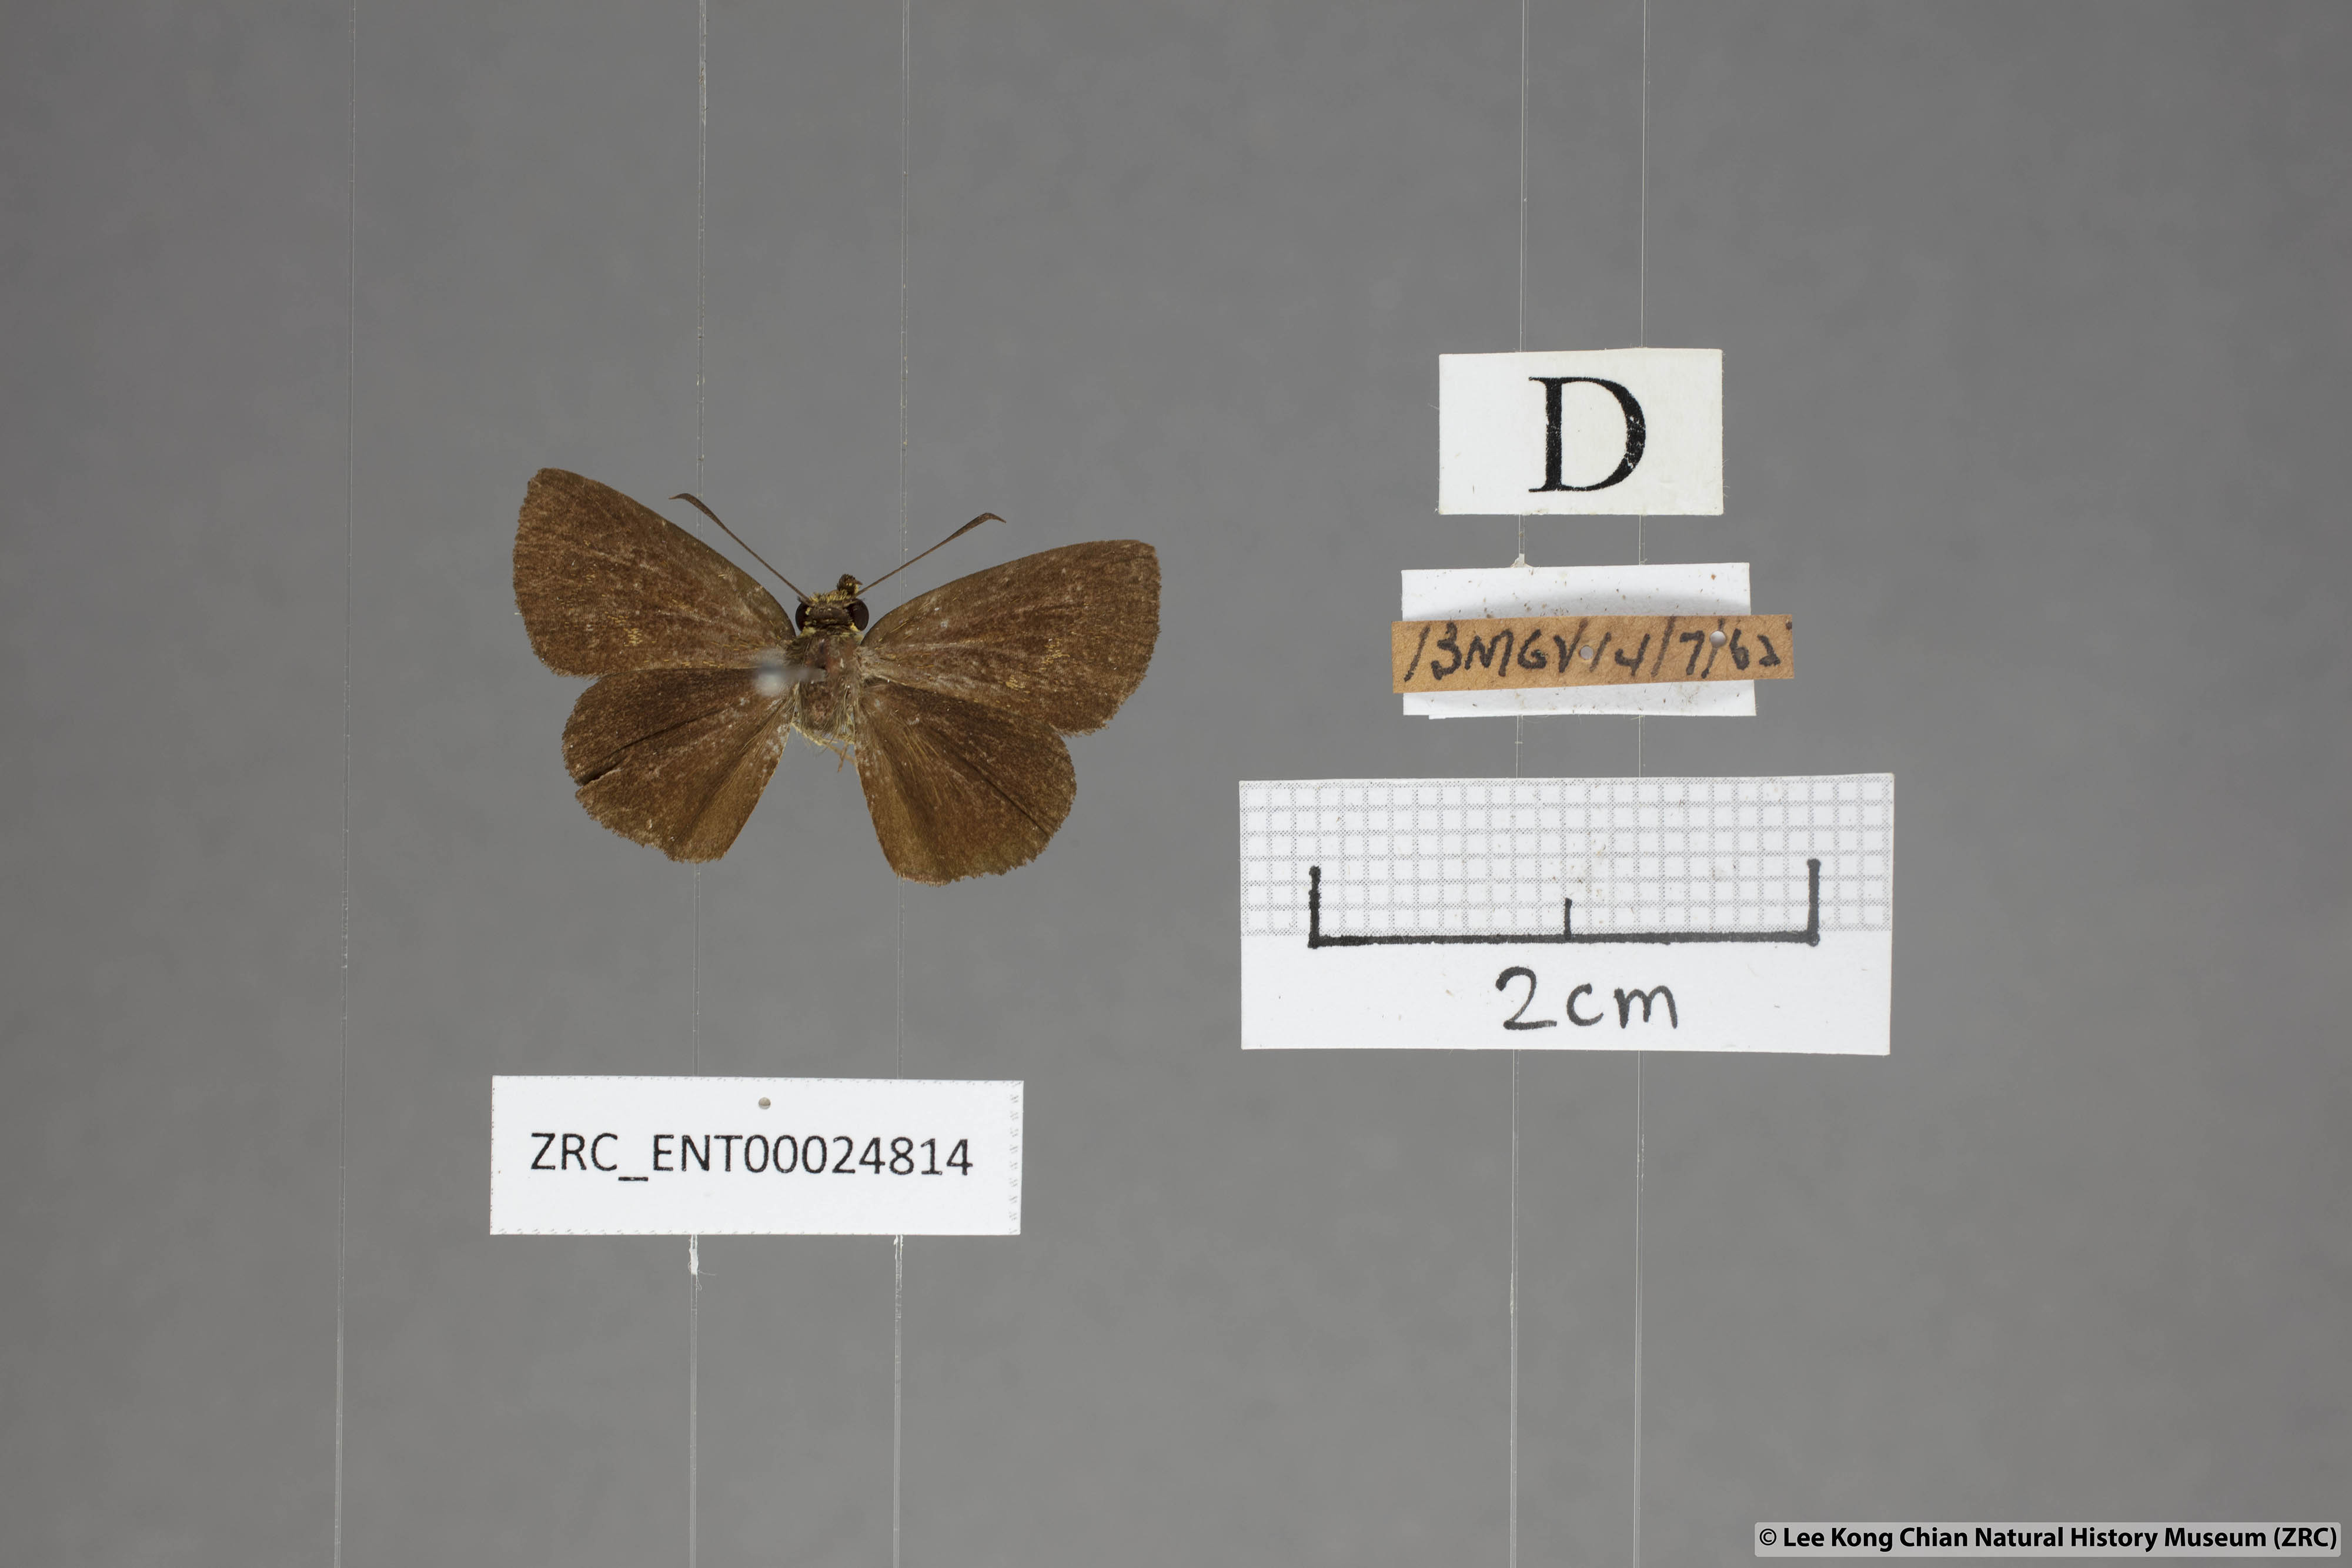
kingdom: Animalia
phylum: Arthropoda
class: Insecta
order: Lepidoptera
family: Hesperiidae
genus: Iambrix
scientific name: Iambrix salsala
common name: Chestnut bob
